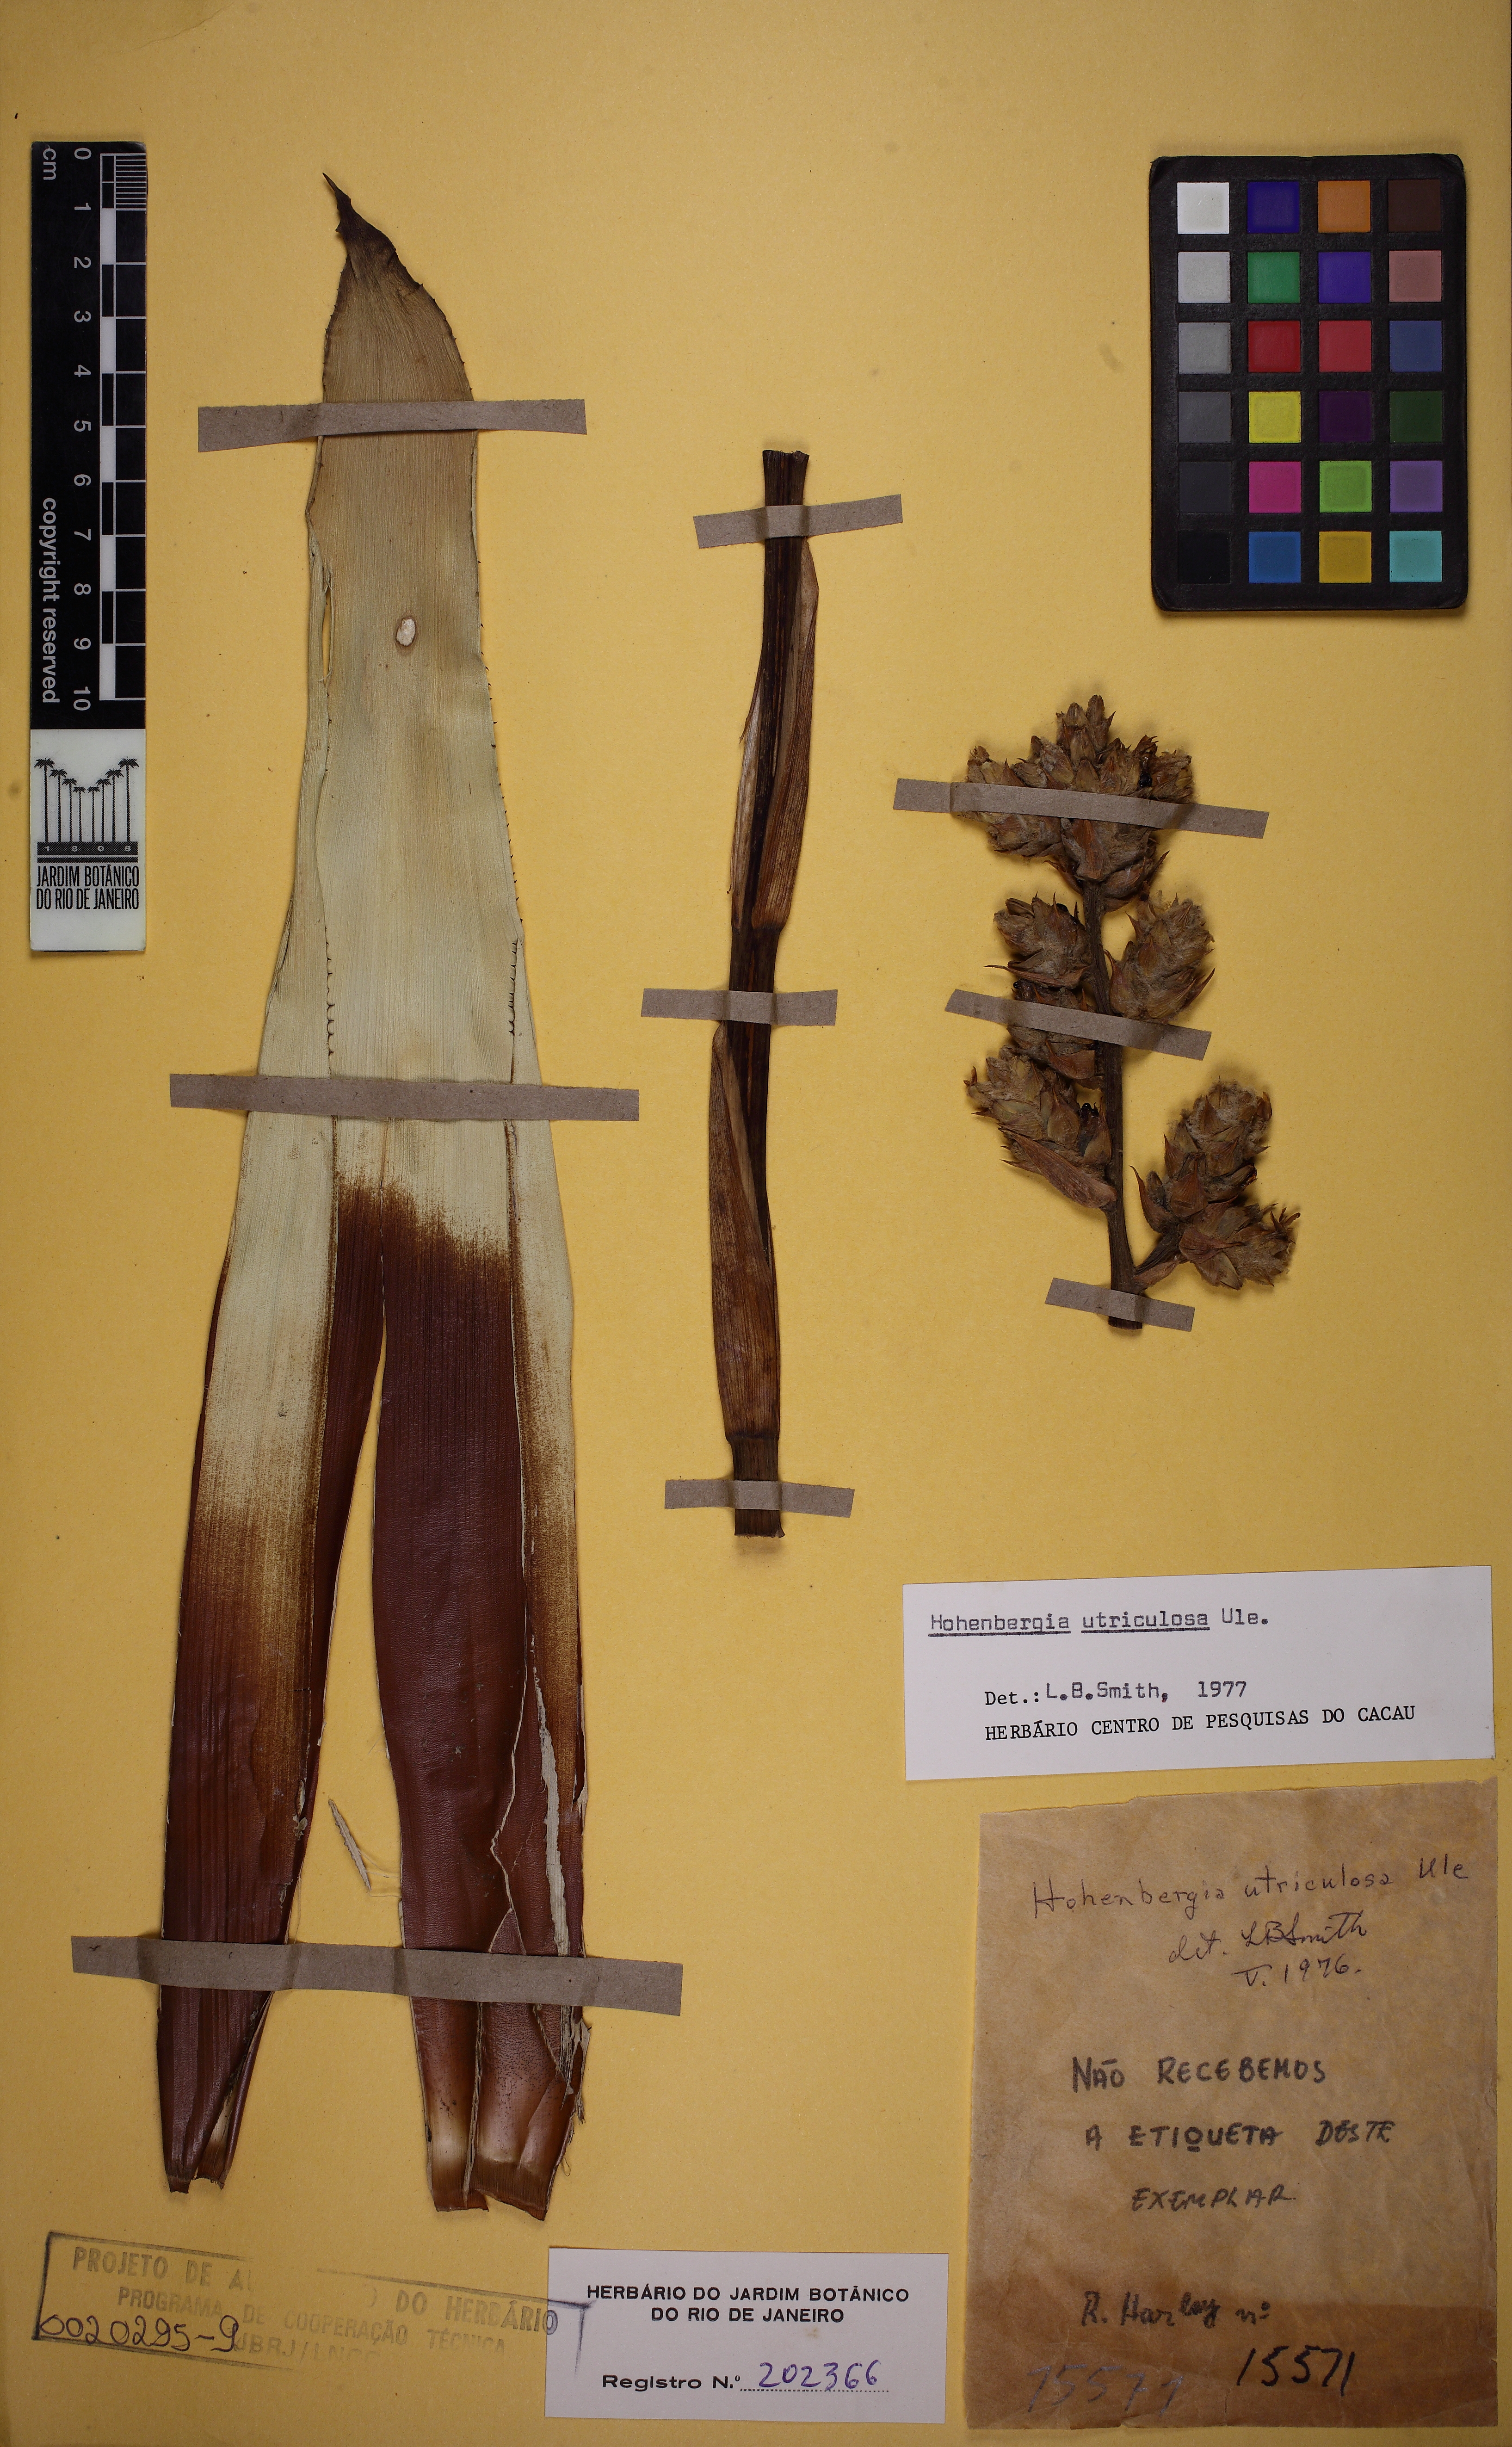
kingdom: Plantae
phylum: Tracheophyta
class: Liliopsida
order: Poales
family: Bromeliaceae
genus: Hohenbergia
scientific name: Hohenbergia utriculosa
